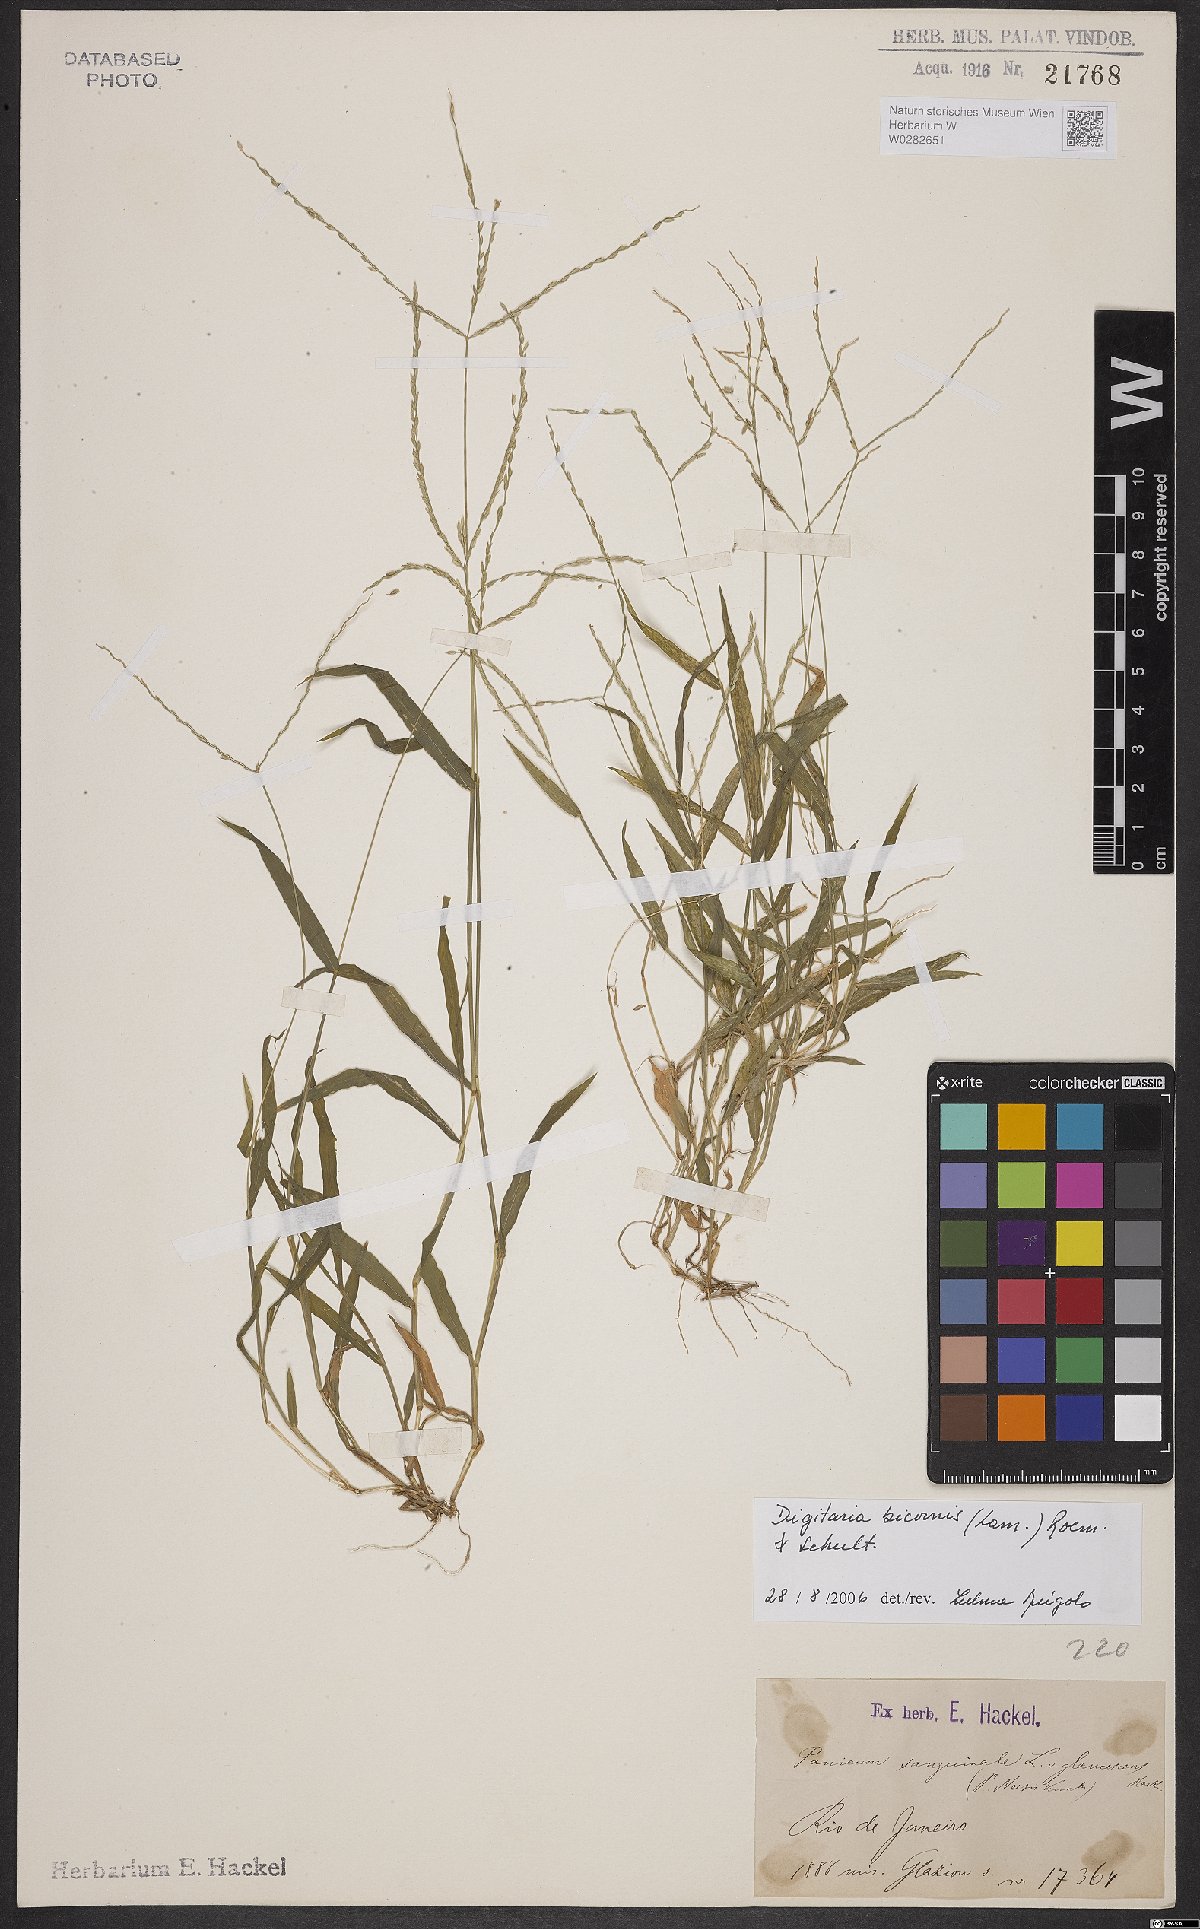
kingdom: Plantae
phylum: Tracheophyta
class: Liliopsida
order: Poales
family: Poaceae
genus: Digitaria
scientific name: Digitaria bicornis
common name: Asian crabgrass
